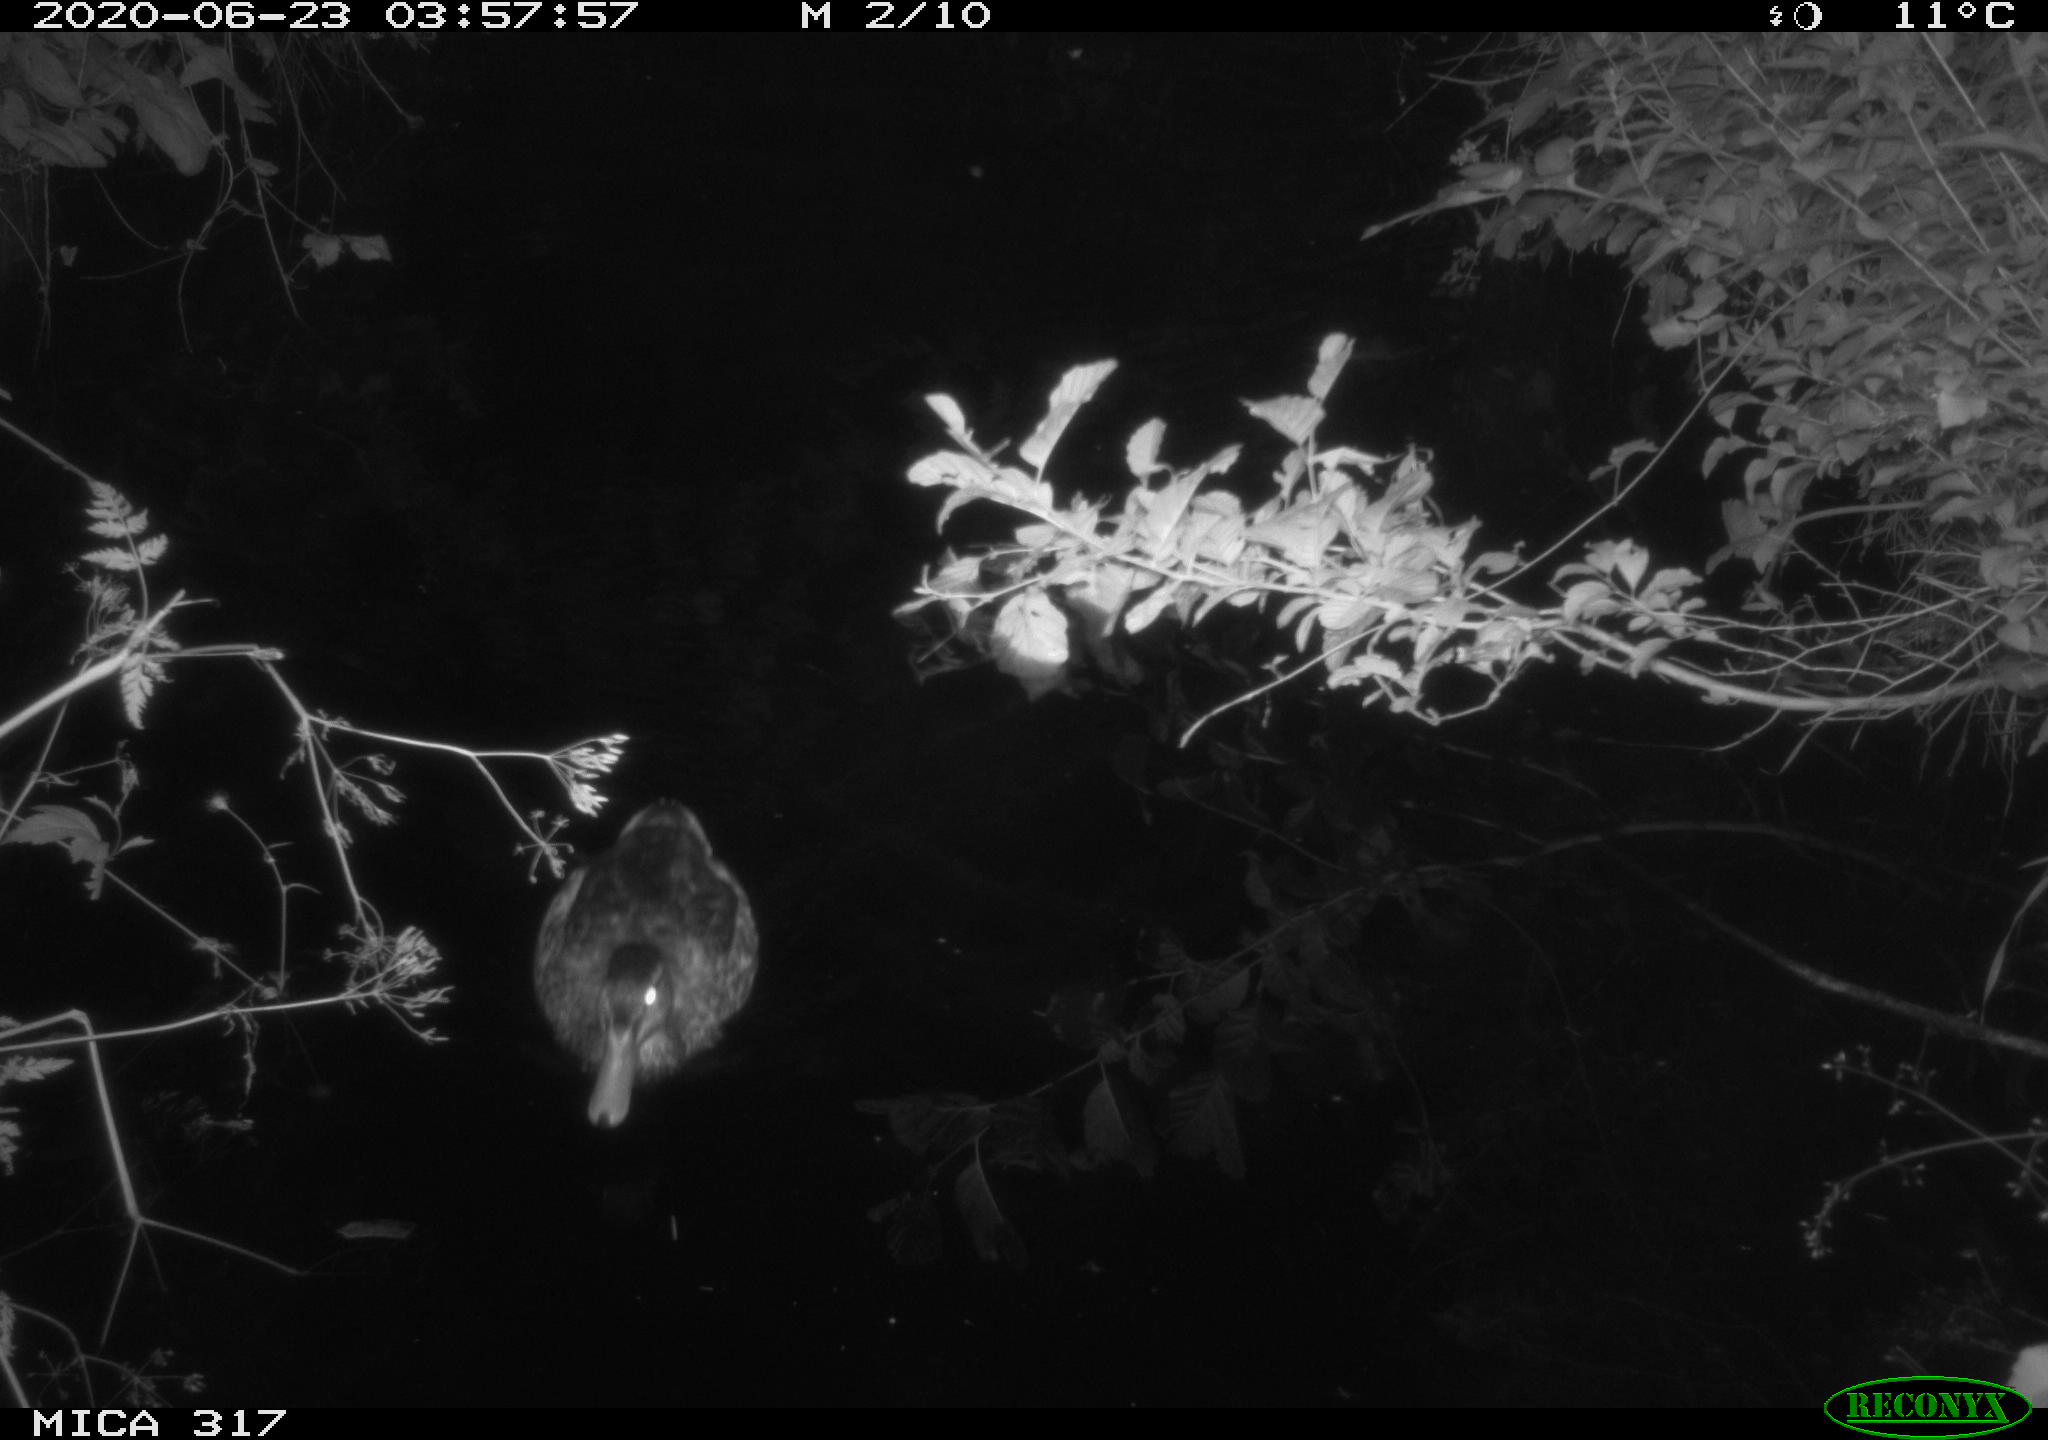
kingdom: Animalia
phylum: Chordata
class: Aves
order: Anseriformes
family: Anatidae
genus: Anas
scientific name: Anas platyrhynchos
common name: Mallard
